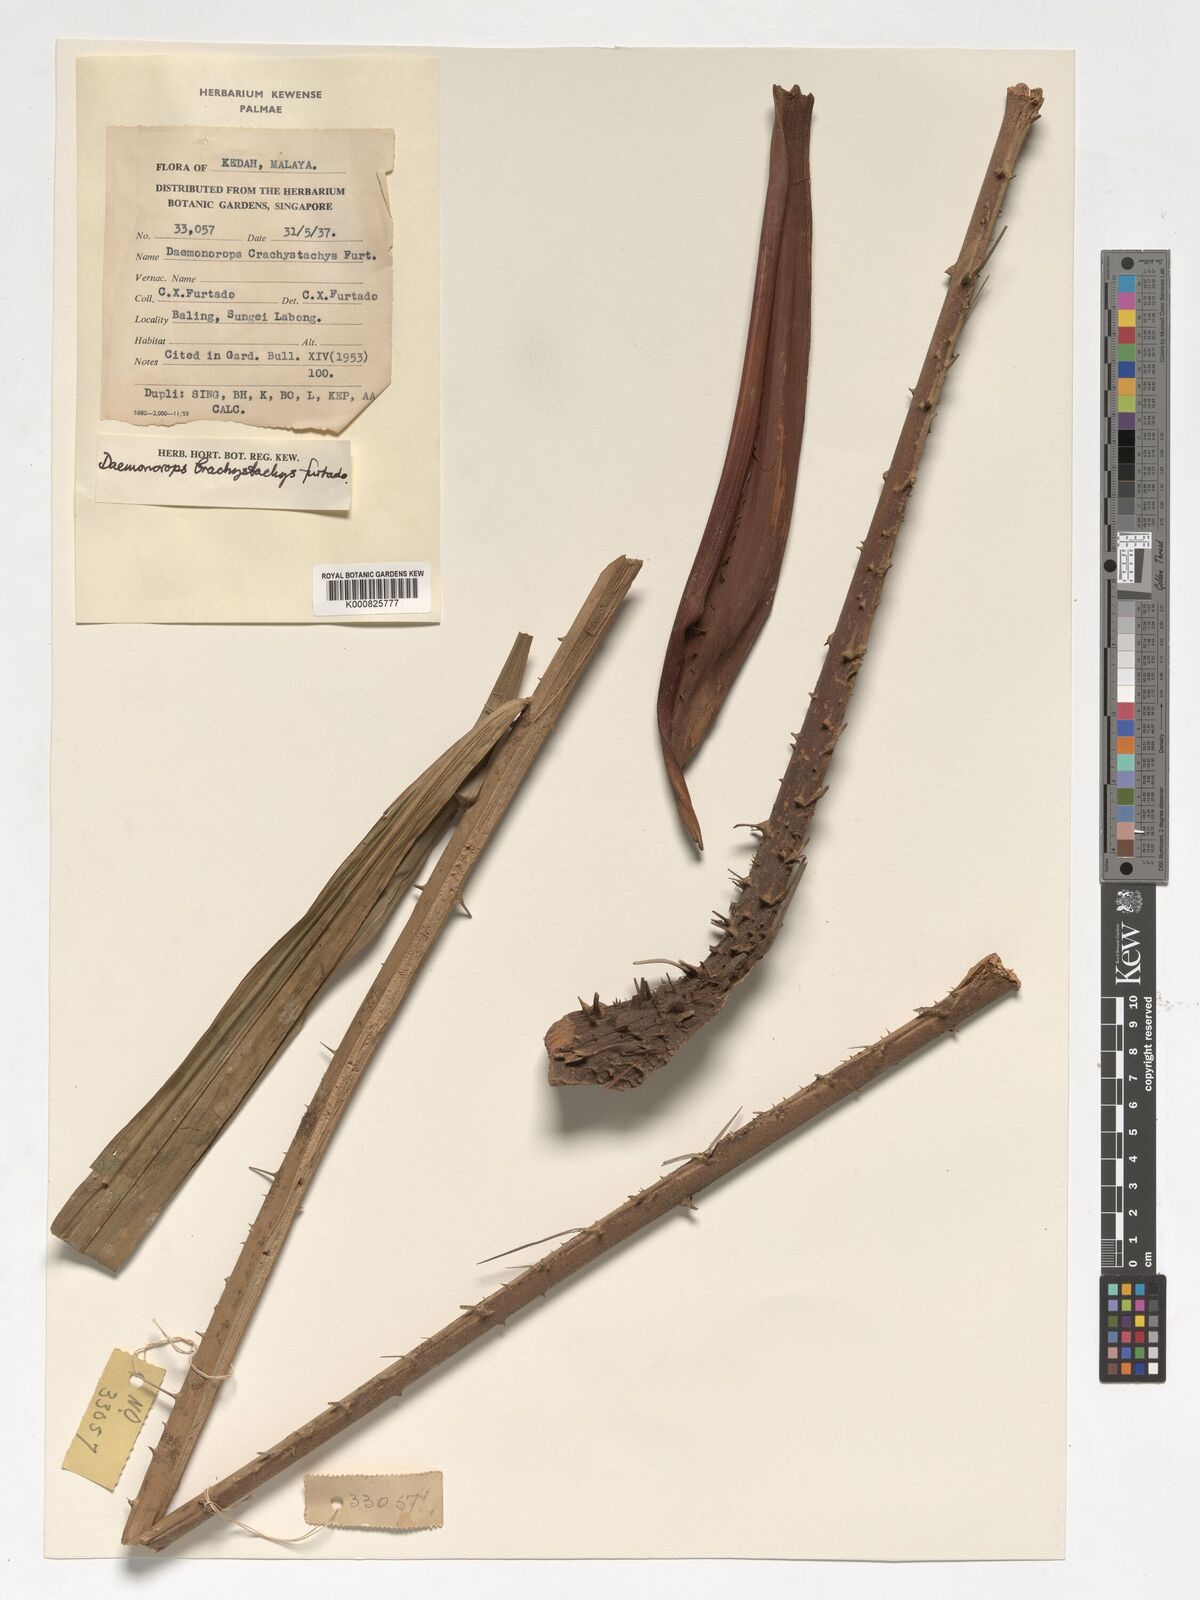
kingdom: Plantae
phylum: Tracheophyta
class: Liliopsida
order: Arecales
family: Arecaceae
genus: Calamus
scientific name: Calamus propinquus
